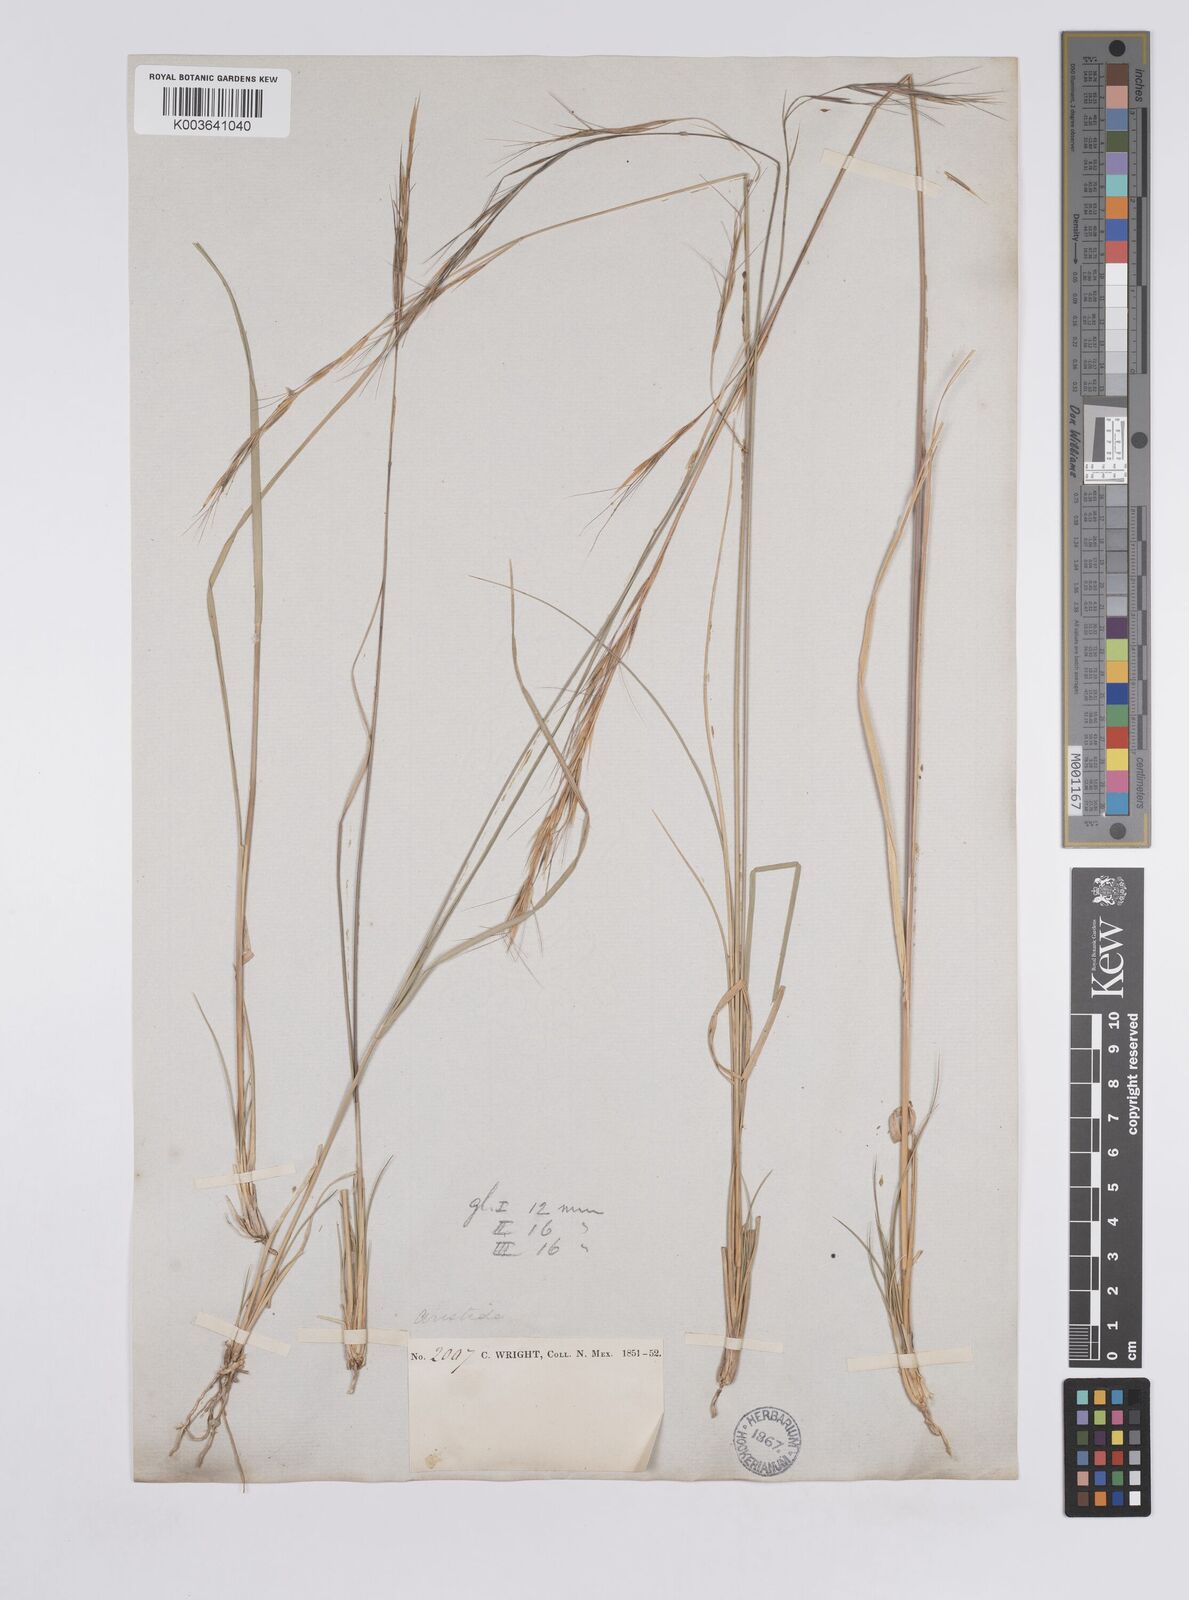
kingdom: Plantae
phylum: Tracheophyta
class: Liliopsida
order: Poales
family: Poaceae
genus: Aristida
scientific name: Aristida arizonica
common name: Arizona threeawn
